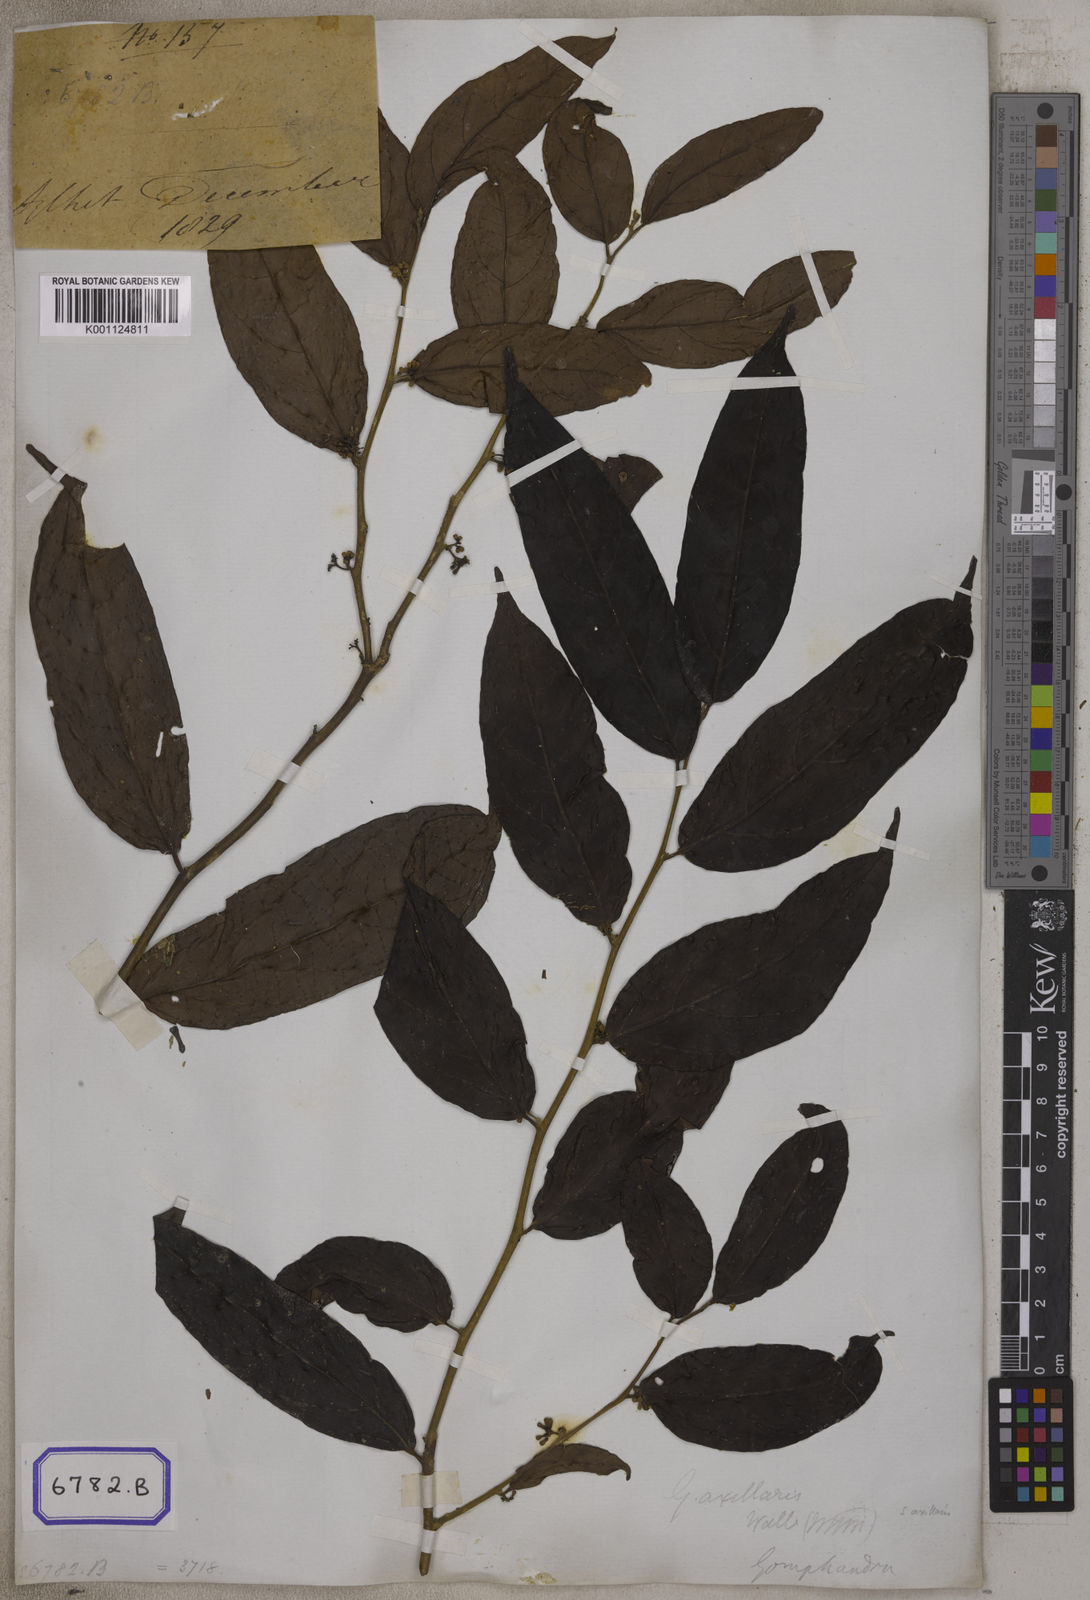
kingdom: Plantae
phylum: Tracheophyta
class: Magnoliopsida
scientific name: Magnoliopsida
